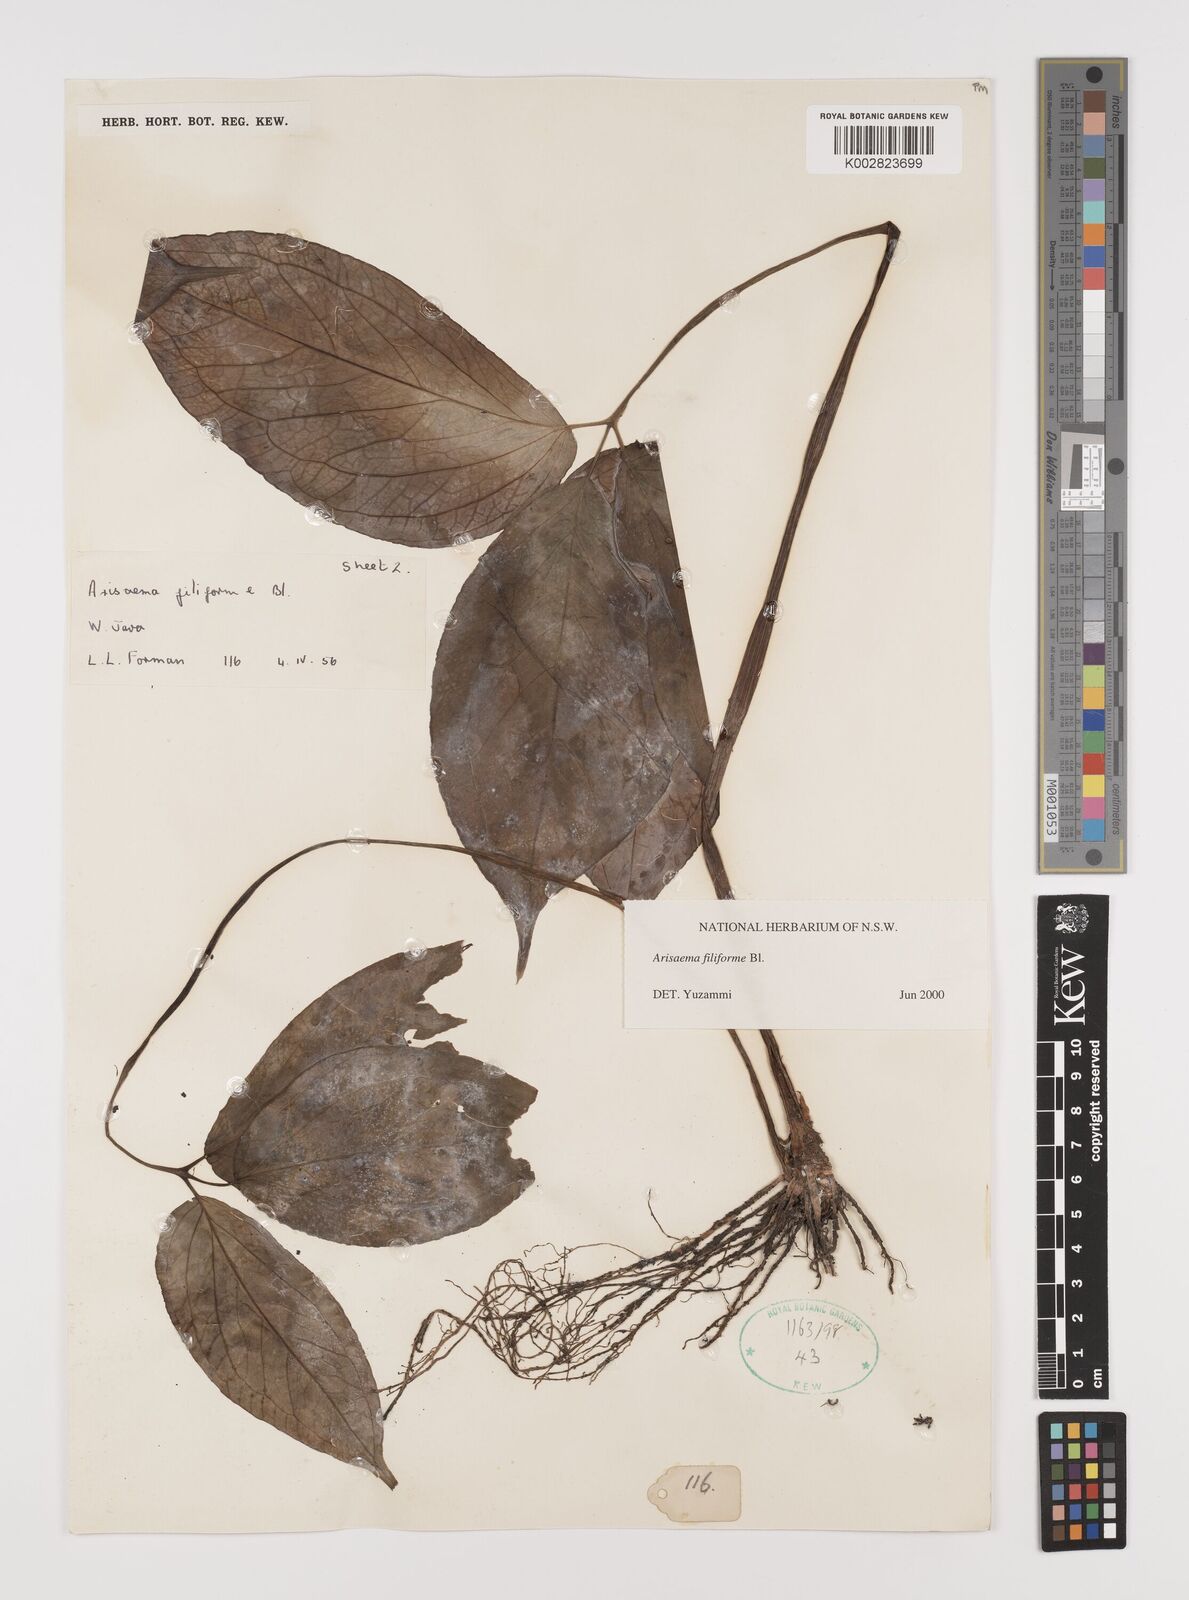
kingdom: Plantae
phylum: Tracheophyta
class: Liliopsida
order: Alismatales
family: Araceae
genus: Arisaema
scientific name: Arisaema filiforme
